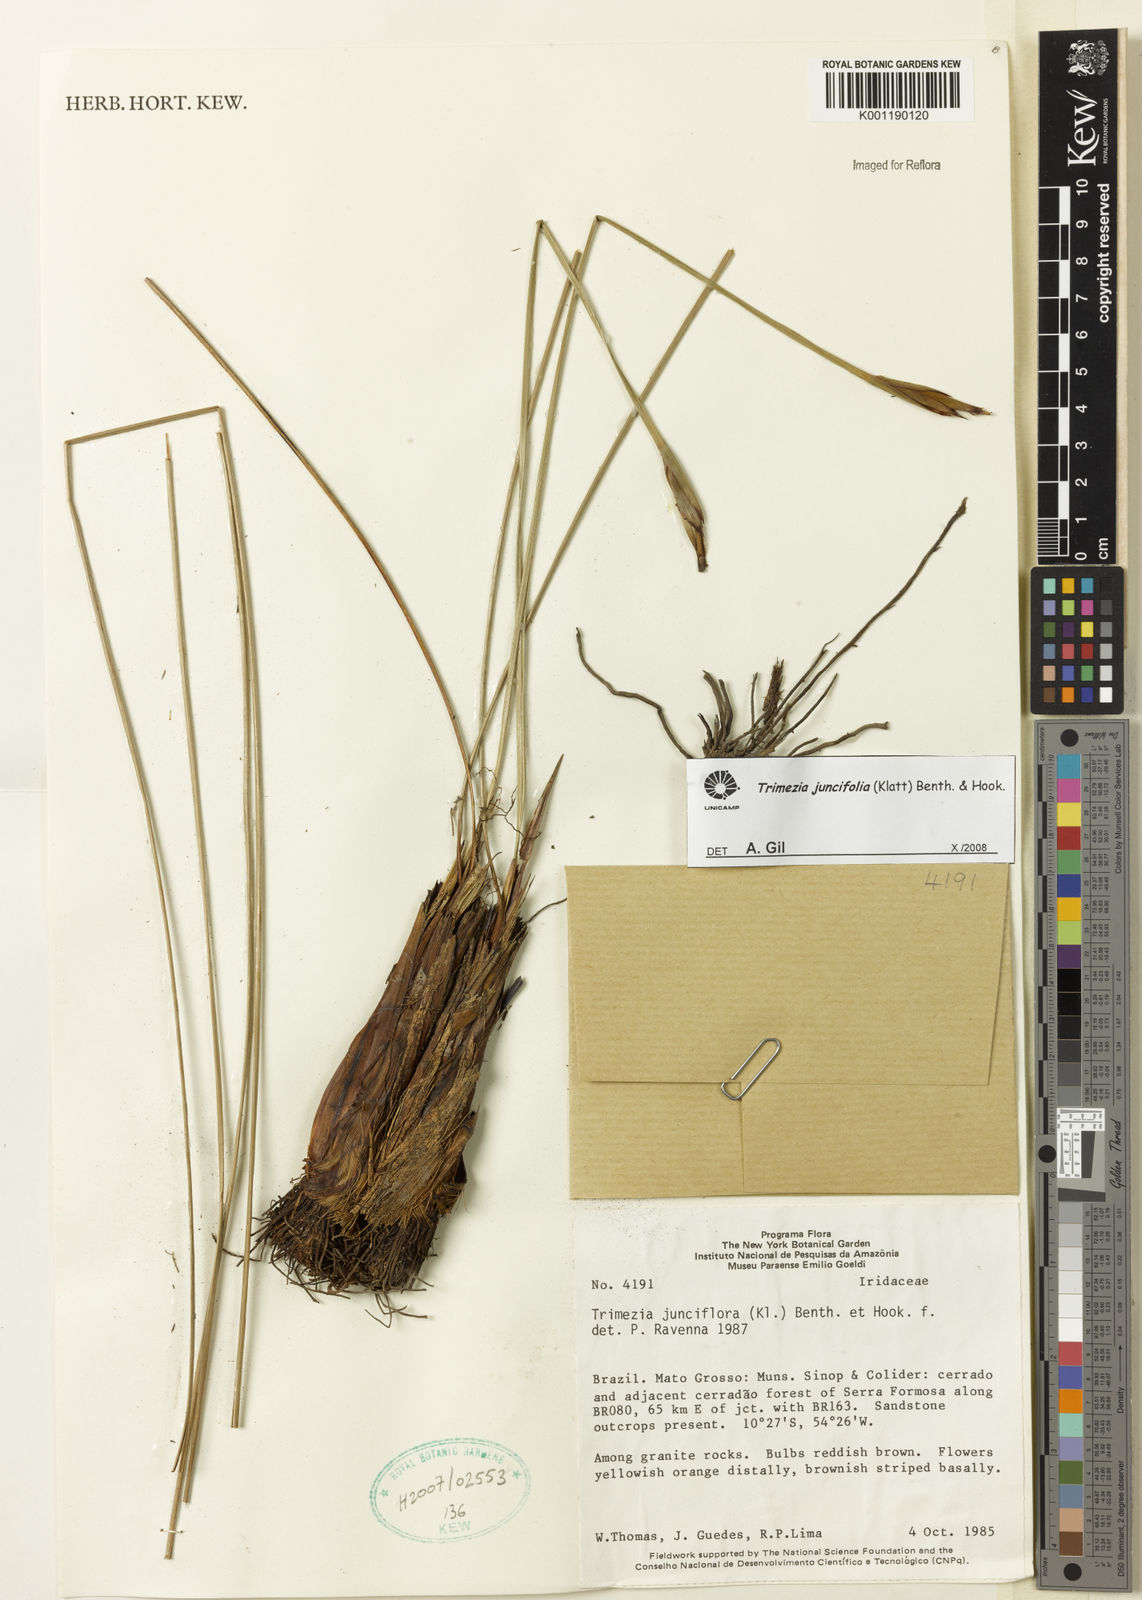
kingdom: Plantae
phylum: Tracheophyta
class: Liliopsida
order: Asparagales
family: Iridaceae
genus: Trimezia
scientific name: Trimezia juncifolia
